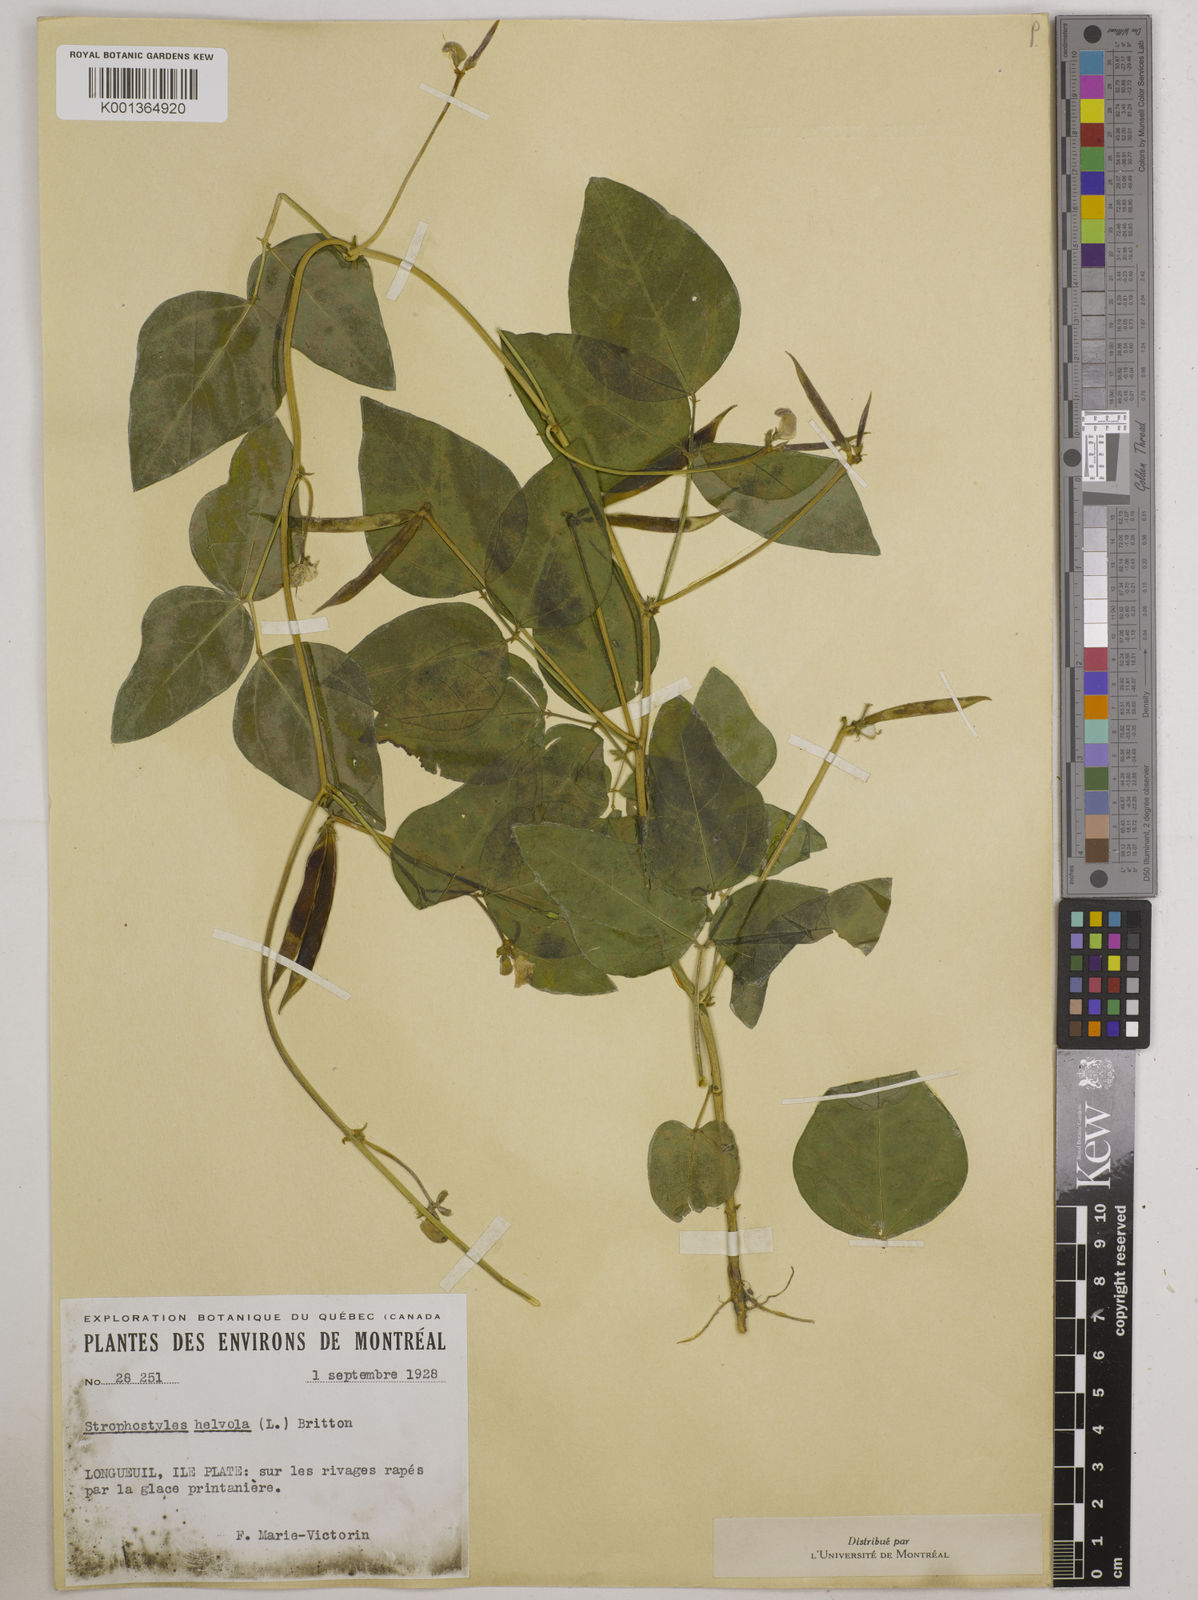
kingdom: Plantae
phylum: Tracheophyta
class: Magnoliopsida
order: Fabales
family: Fabaceae
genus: Strophostyles
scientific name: Strophostyles
